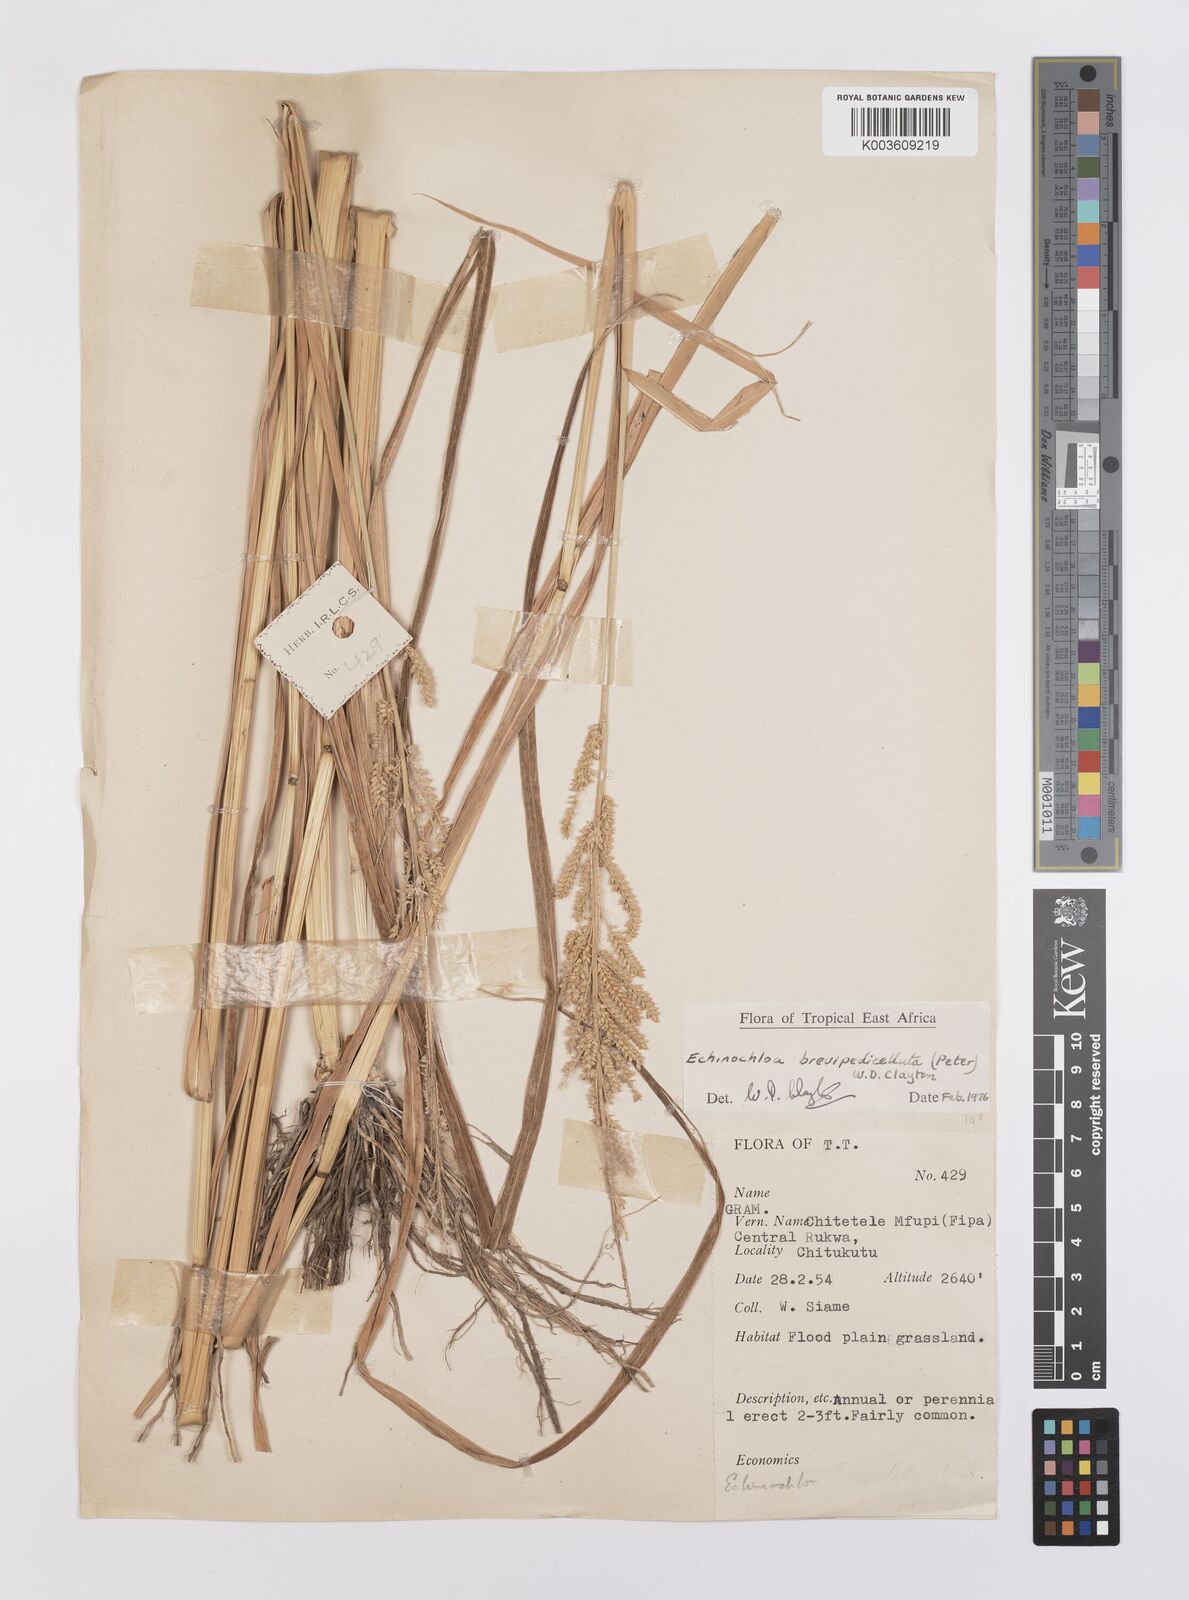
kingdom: Plantae
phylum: Tracheophyta
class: Liliopsida
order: Poales
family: Poaceae
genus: Echinochloa
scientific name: Echinochloa brevipedicellata
